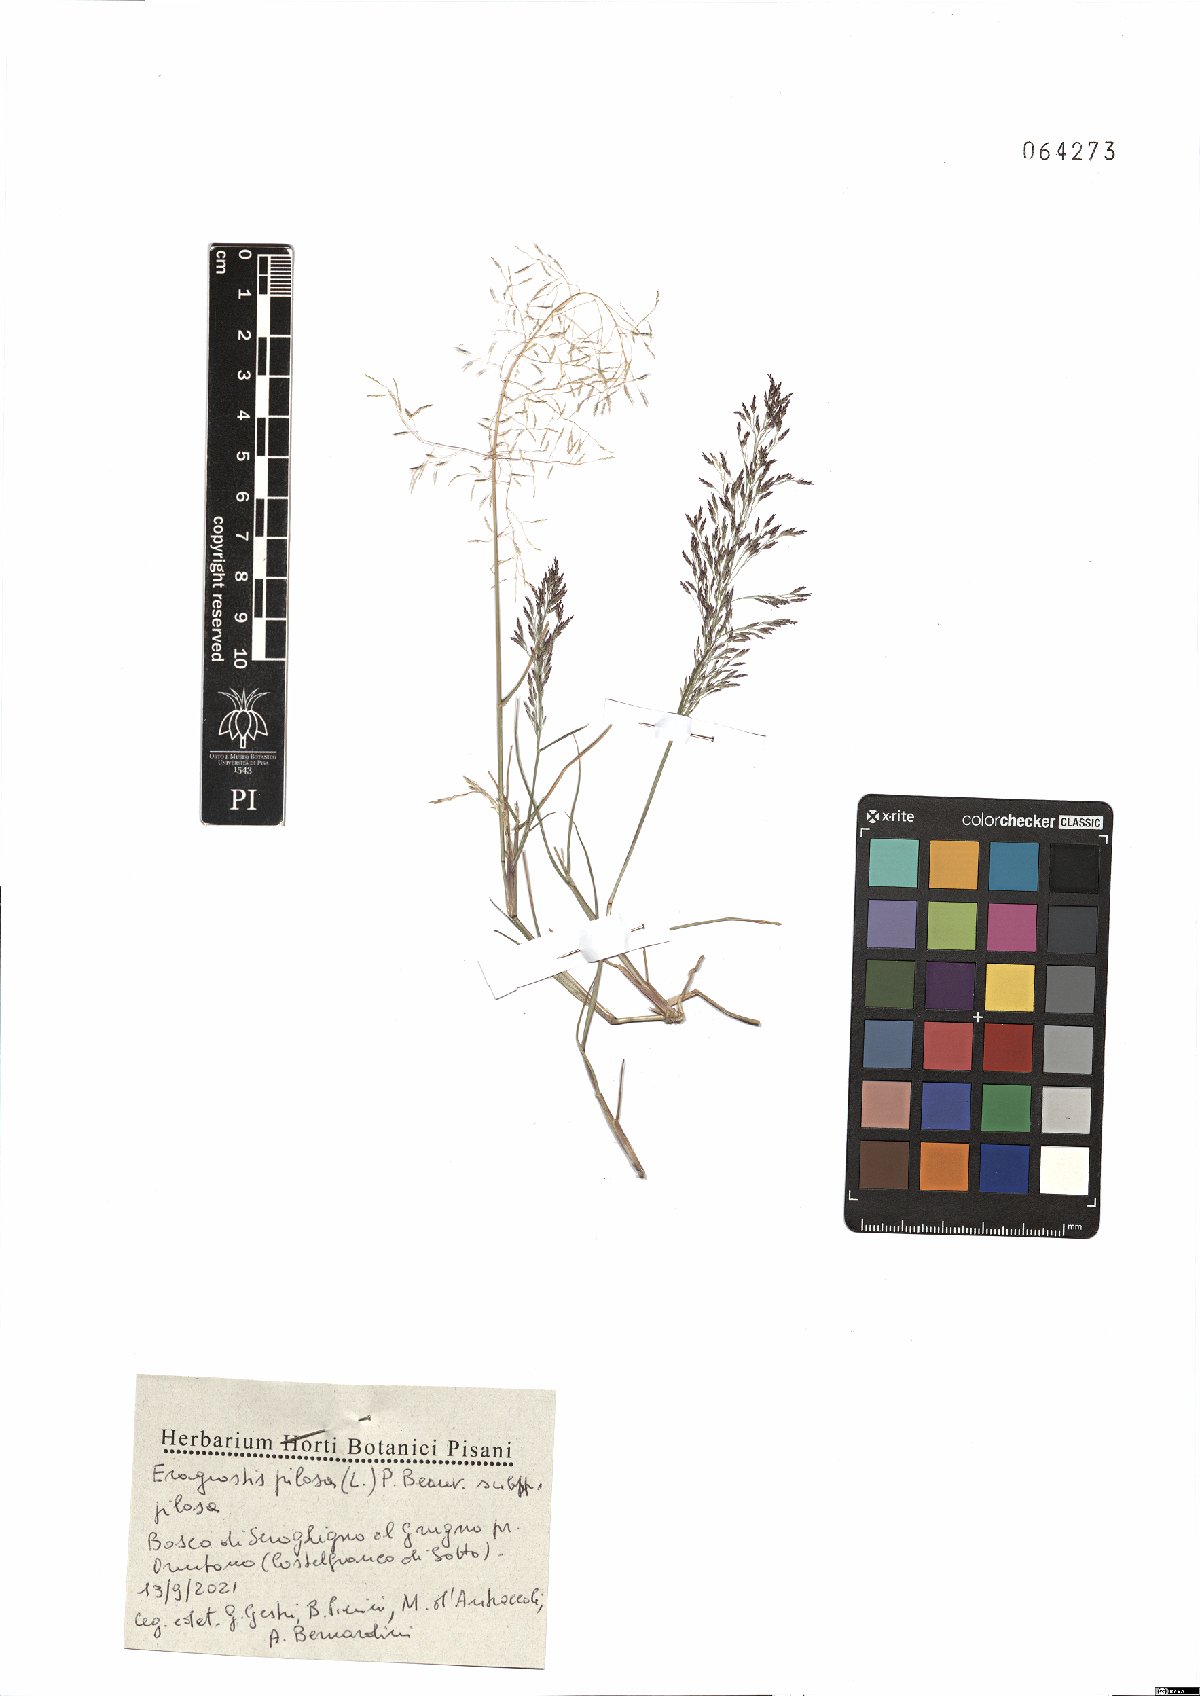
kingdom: Plantae
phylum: Tracheophyta
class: Liliopsida
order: Poales
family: Poaceae
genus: Eragrostis
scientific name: Eragrostis pilosa
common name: Indian lovegrass
